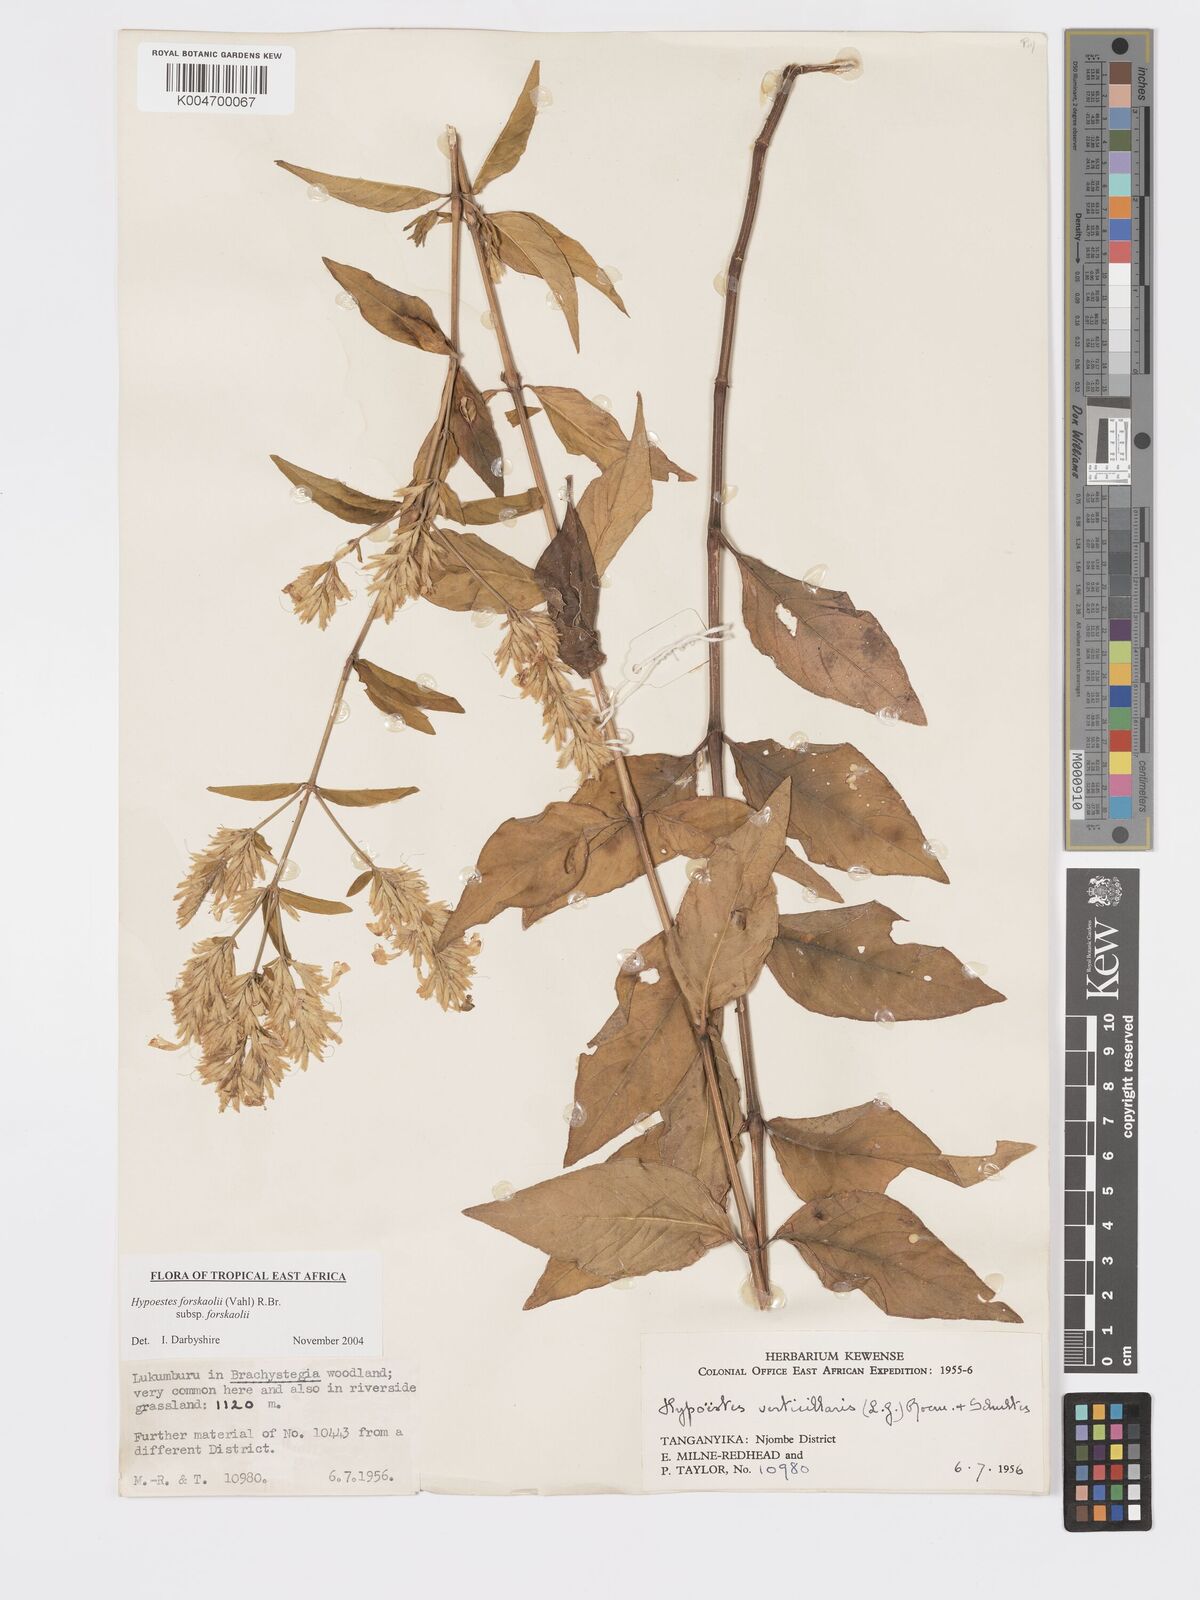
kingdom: Plantae
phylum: Tracheophyta
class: Magnoliopsida
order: Lamiales
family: Acanthaceae
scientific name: Acanthaceae
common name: Acanthaceae
